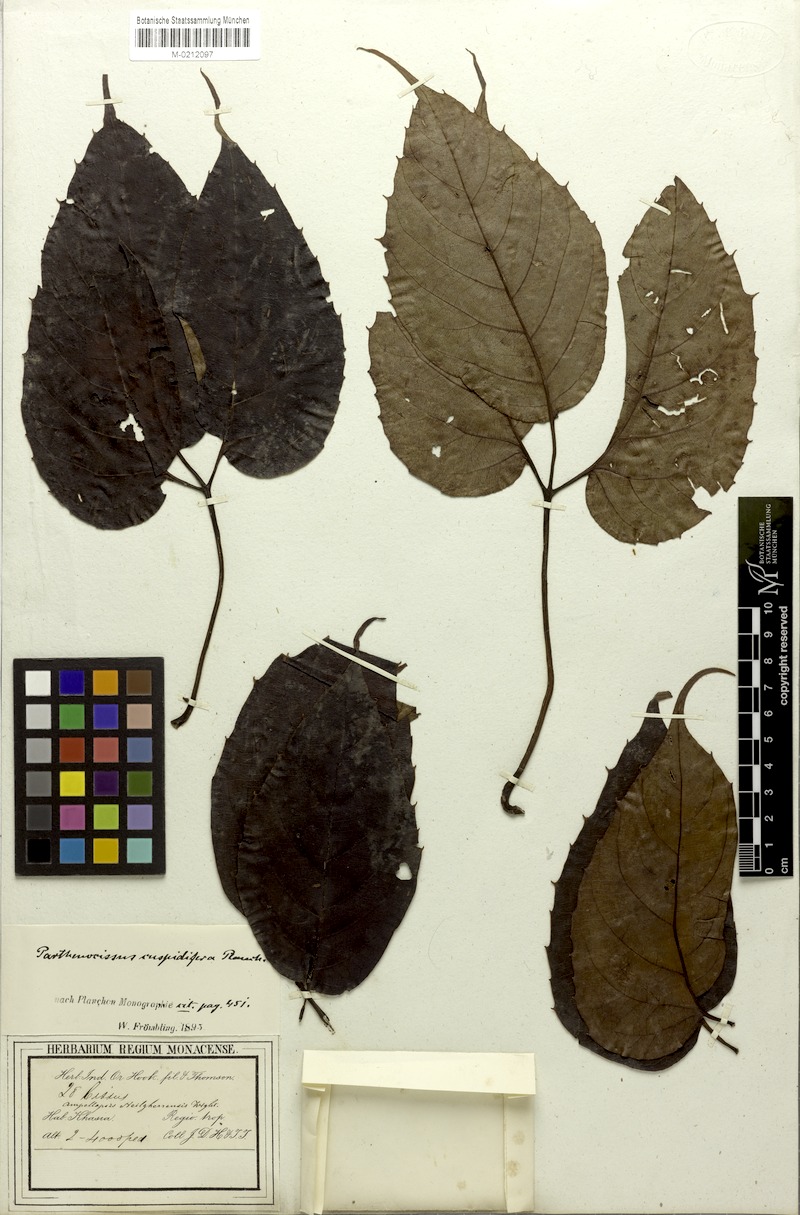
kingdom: Plantae
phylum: Tracheophyta
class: Magnoliopsida
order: Vitales
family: Vitaceae
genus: Parthenocissus
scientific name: Parthenocissus semicordata
